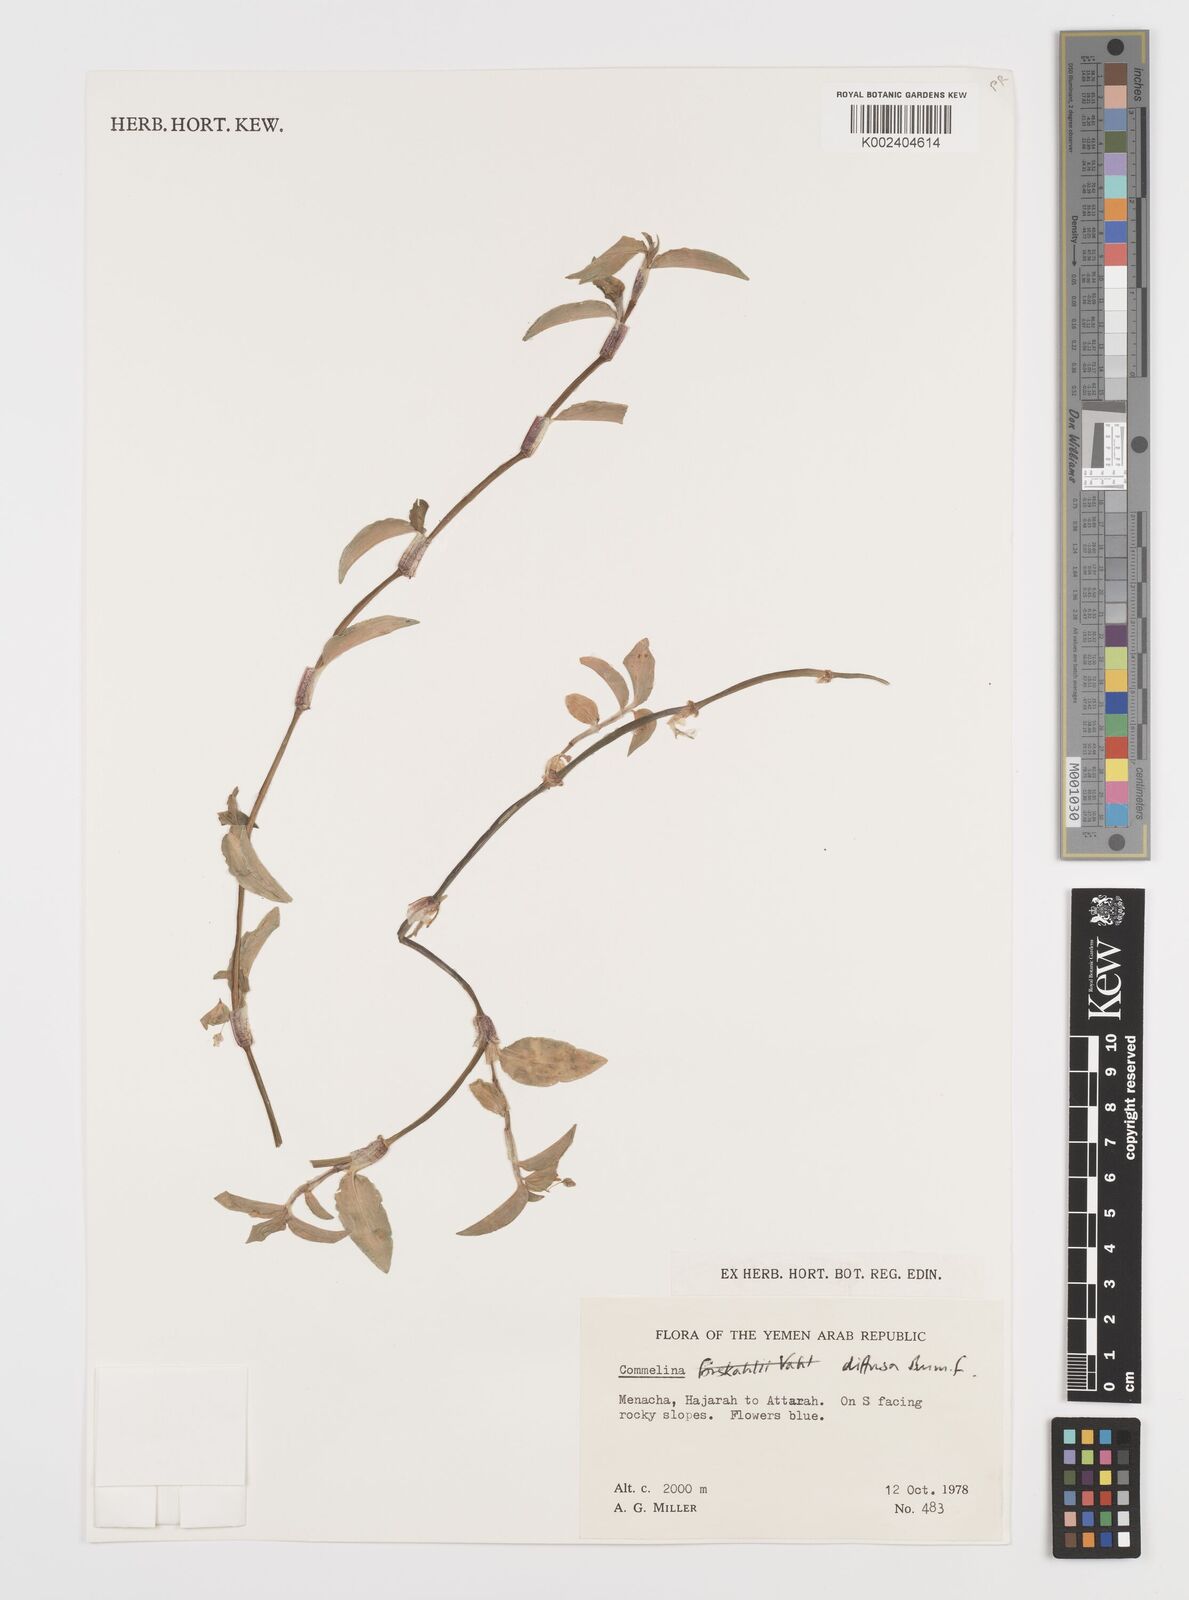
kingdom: Plantae
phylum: Tracheophyta
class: Liliopsida
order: Commelinales
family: Commelinaceae
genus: Commelina
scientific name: Commelina diffusa
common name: Climbing dayflower
